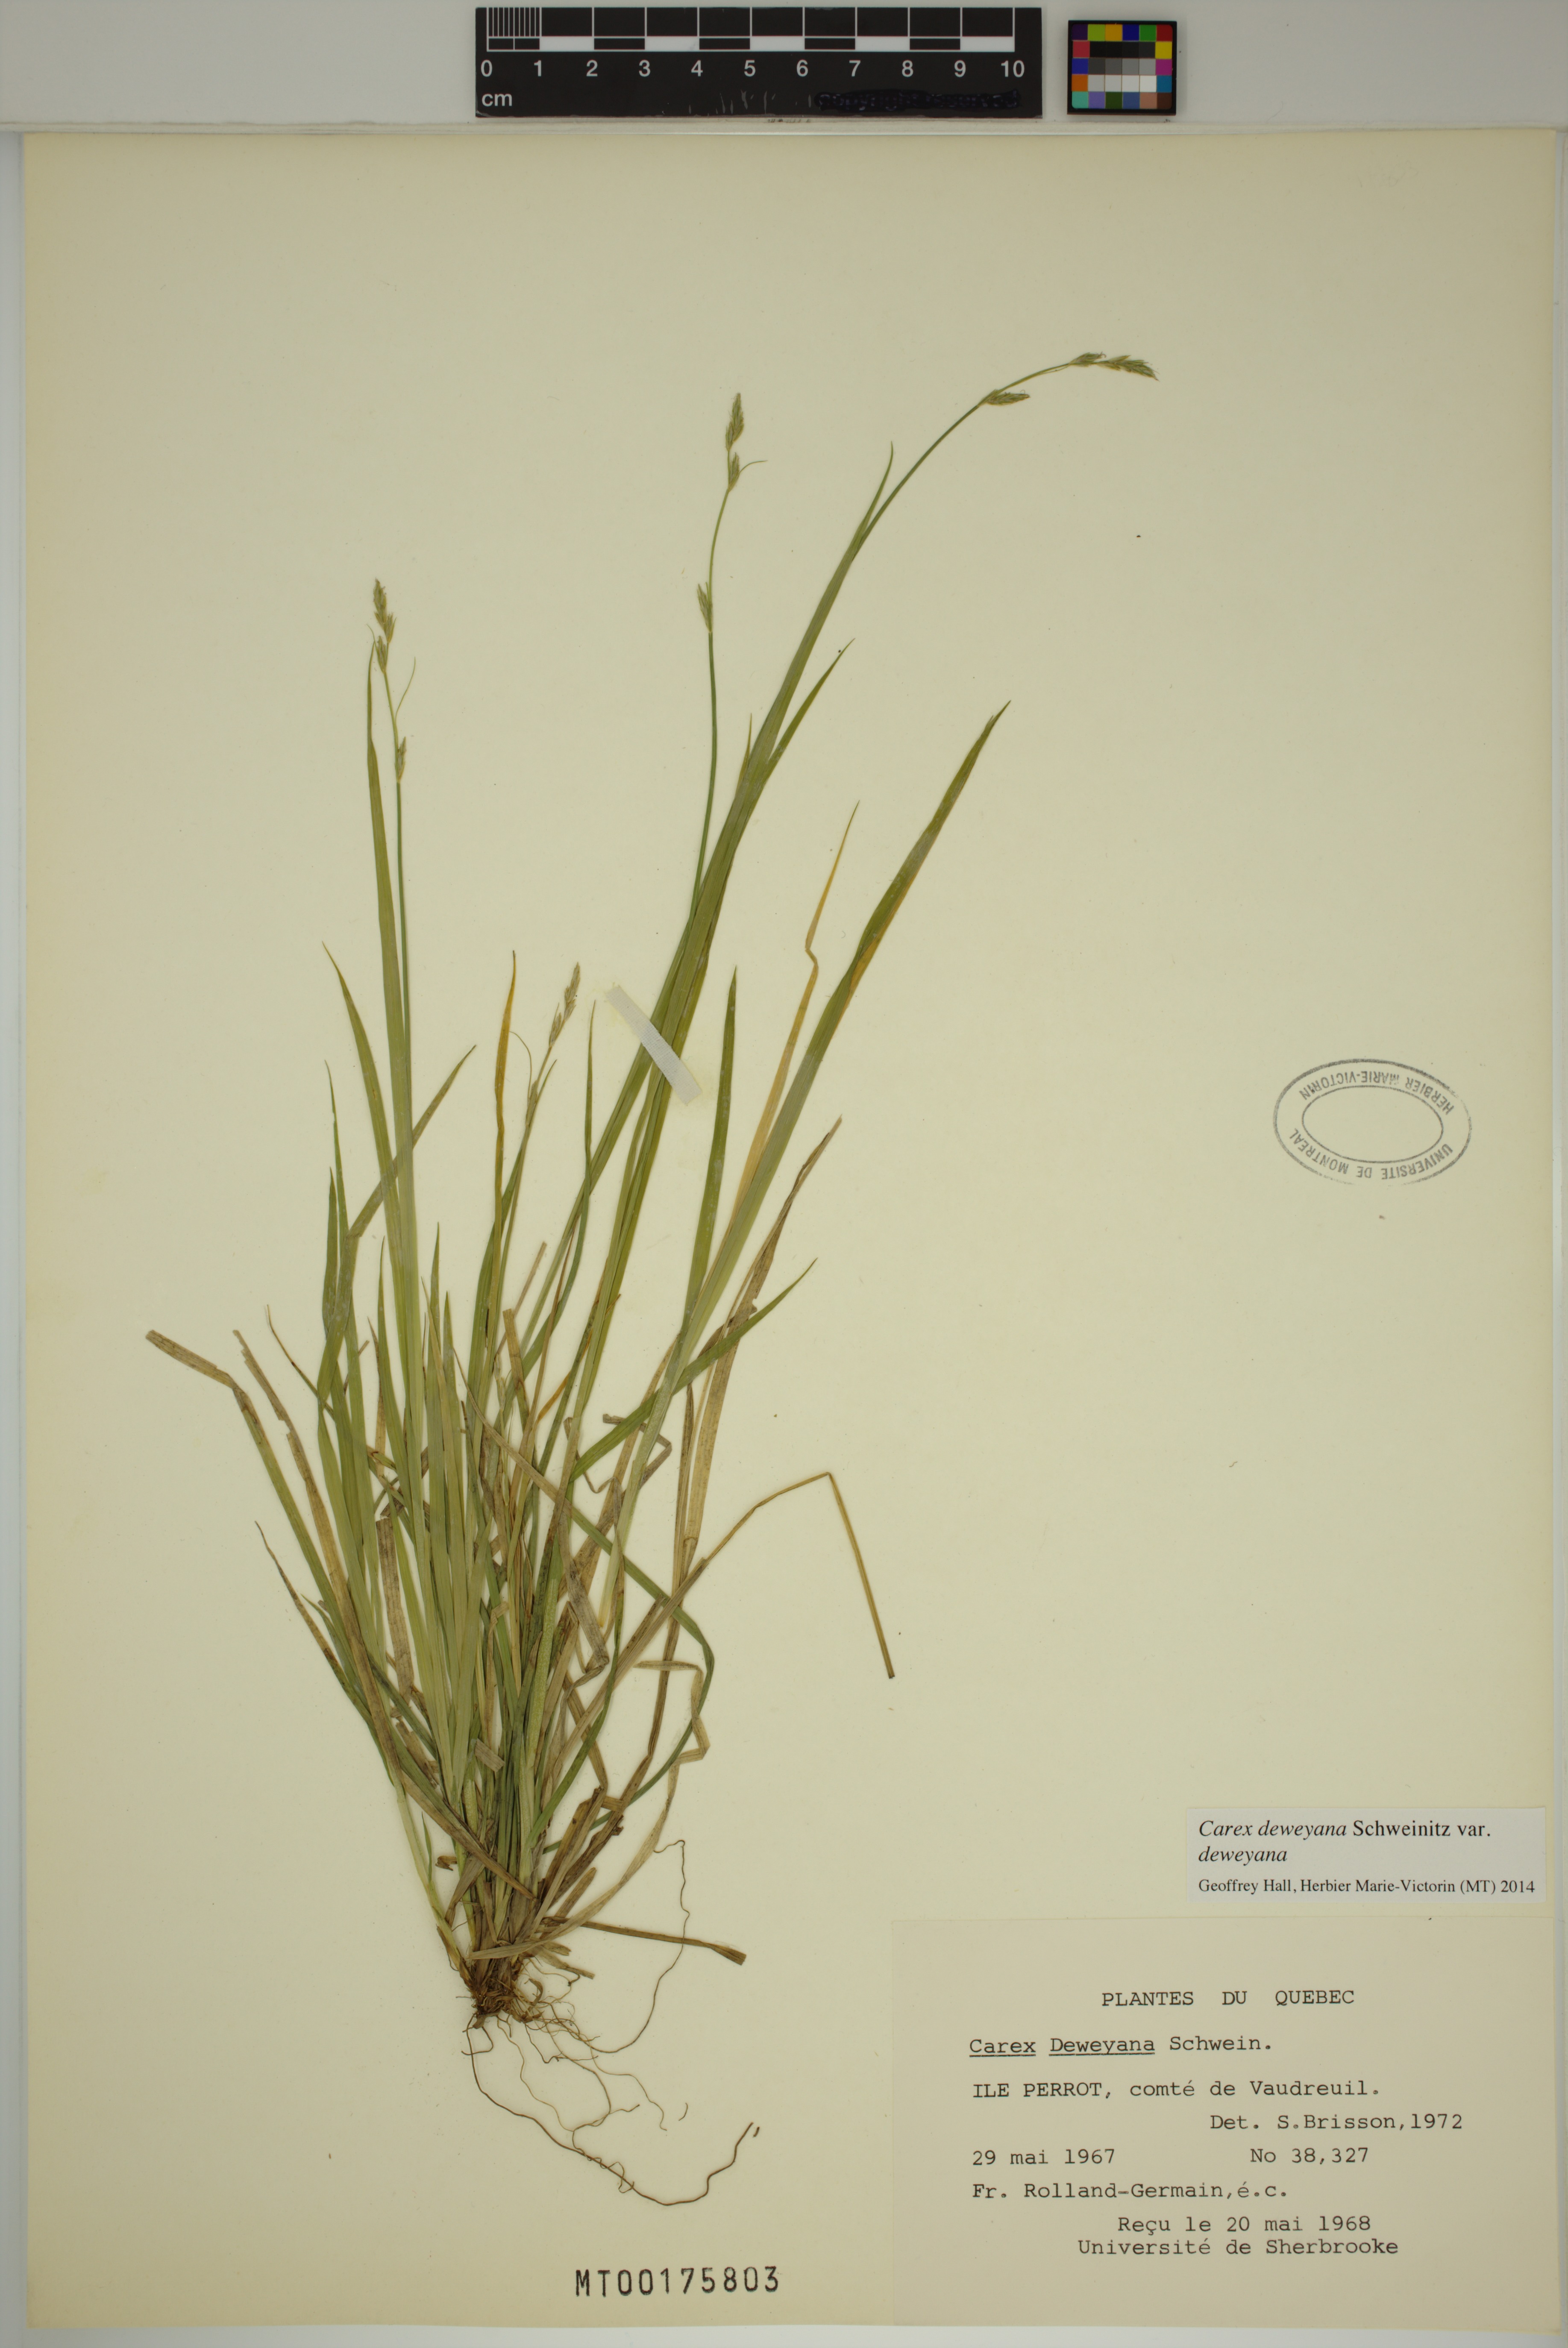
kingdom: Plantae
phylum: Tracheophyta
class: Liliopsida
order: Poales
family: Cyperaceae
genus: Carex
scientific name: Carex deweyana
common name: Dewey's sedge
